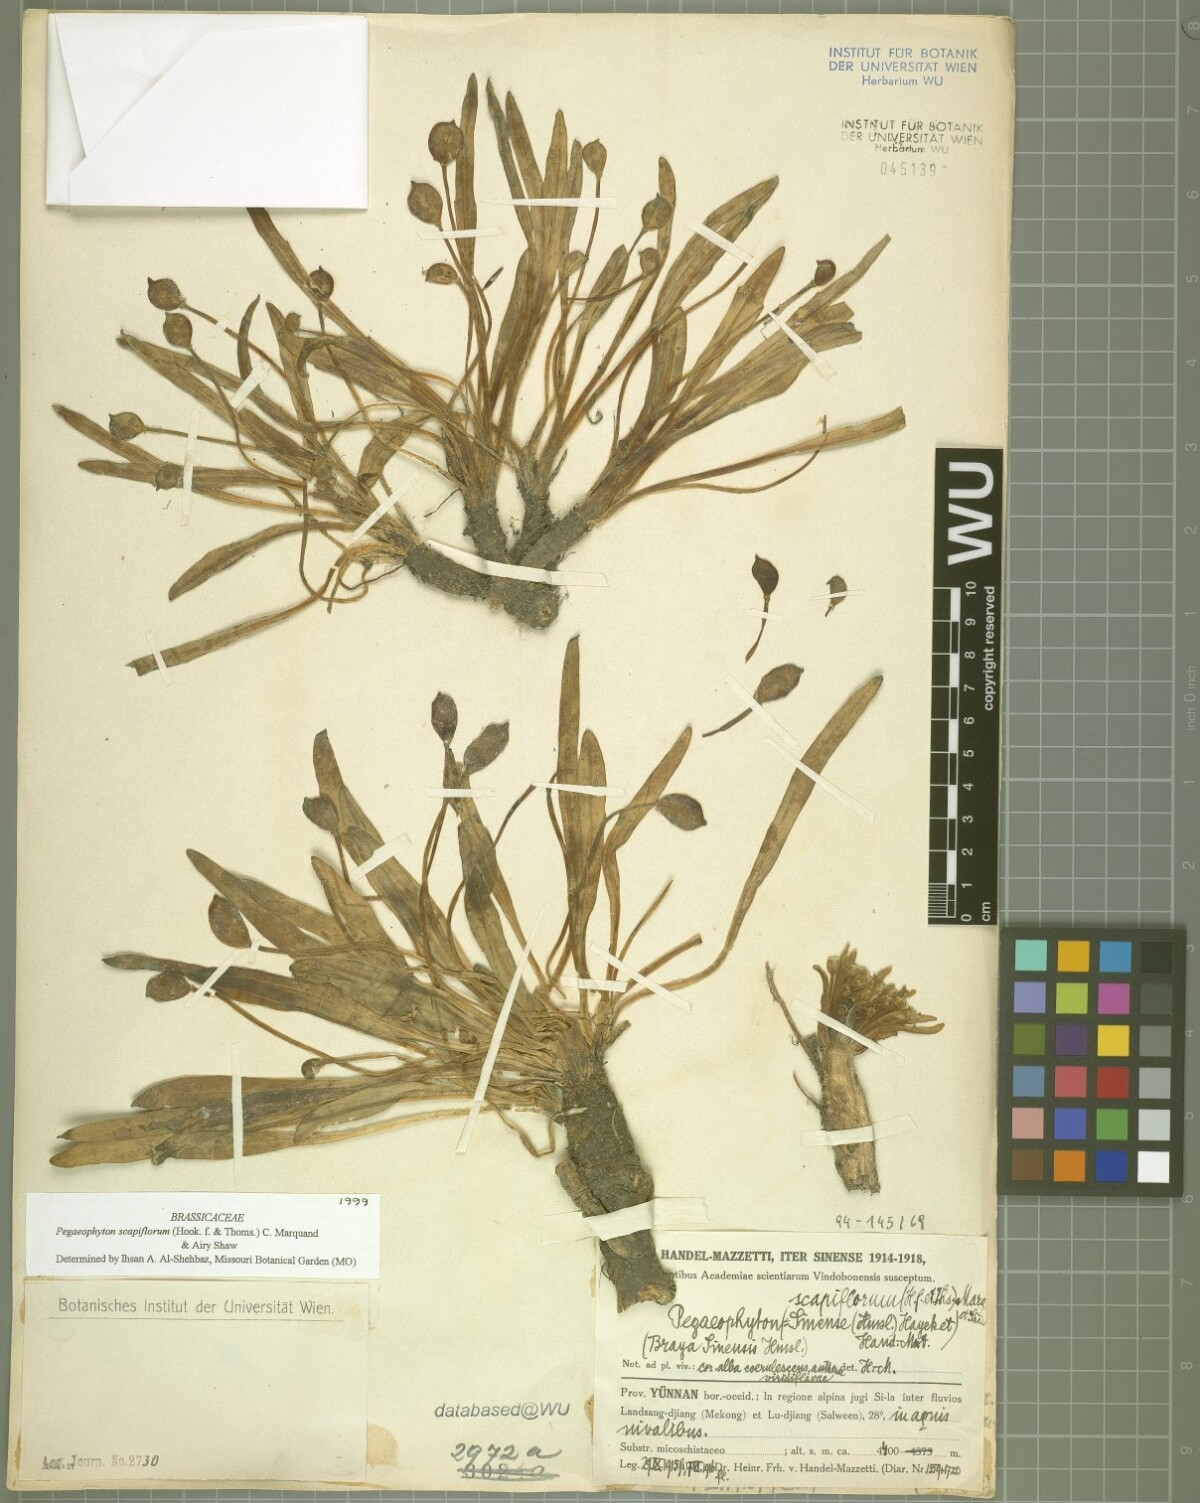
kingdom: Plantae
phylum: Tracheophyta
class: Magnoliopsida
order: Brassicales
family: Brassicaceae
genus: Eutrema
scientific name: Eutrema scapiflorum
